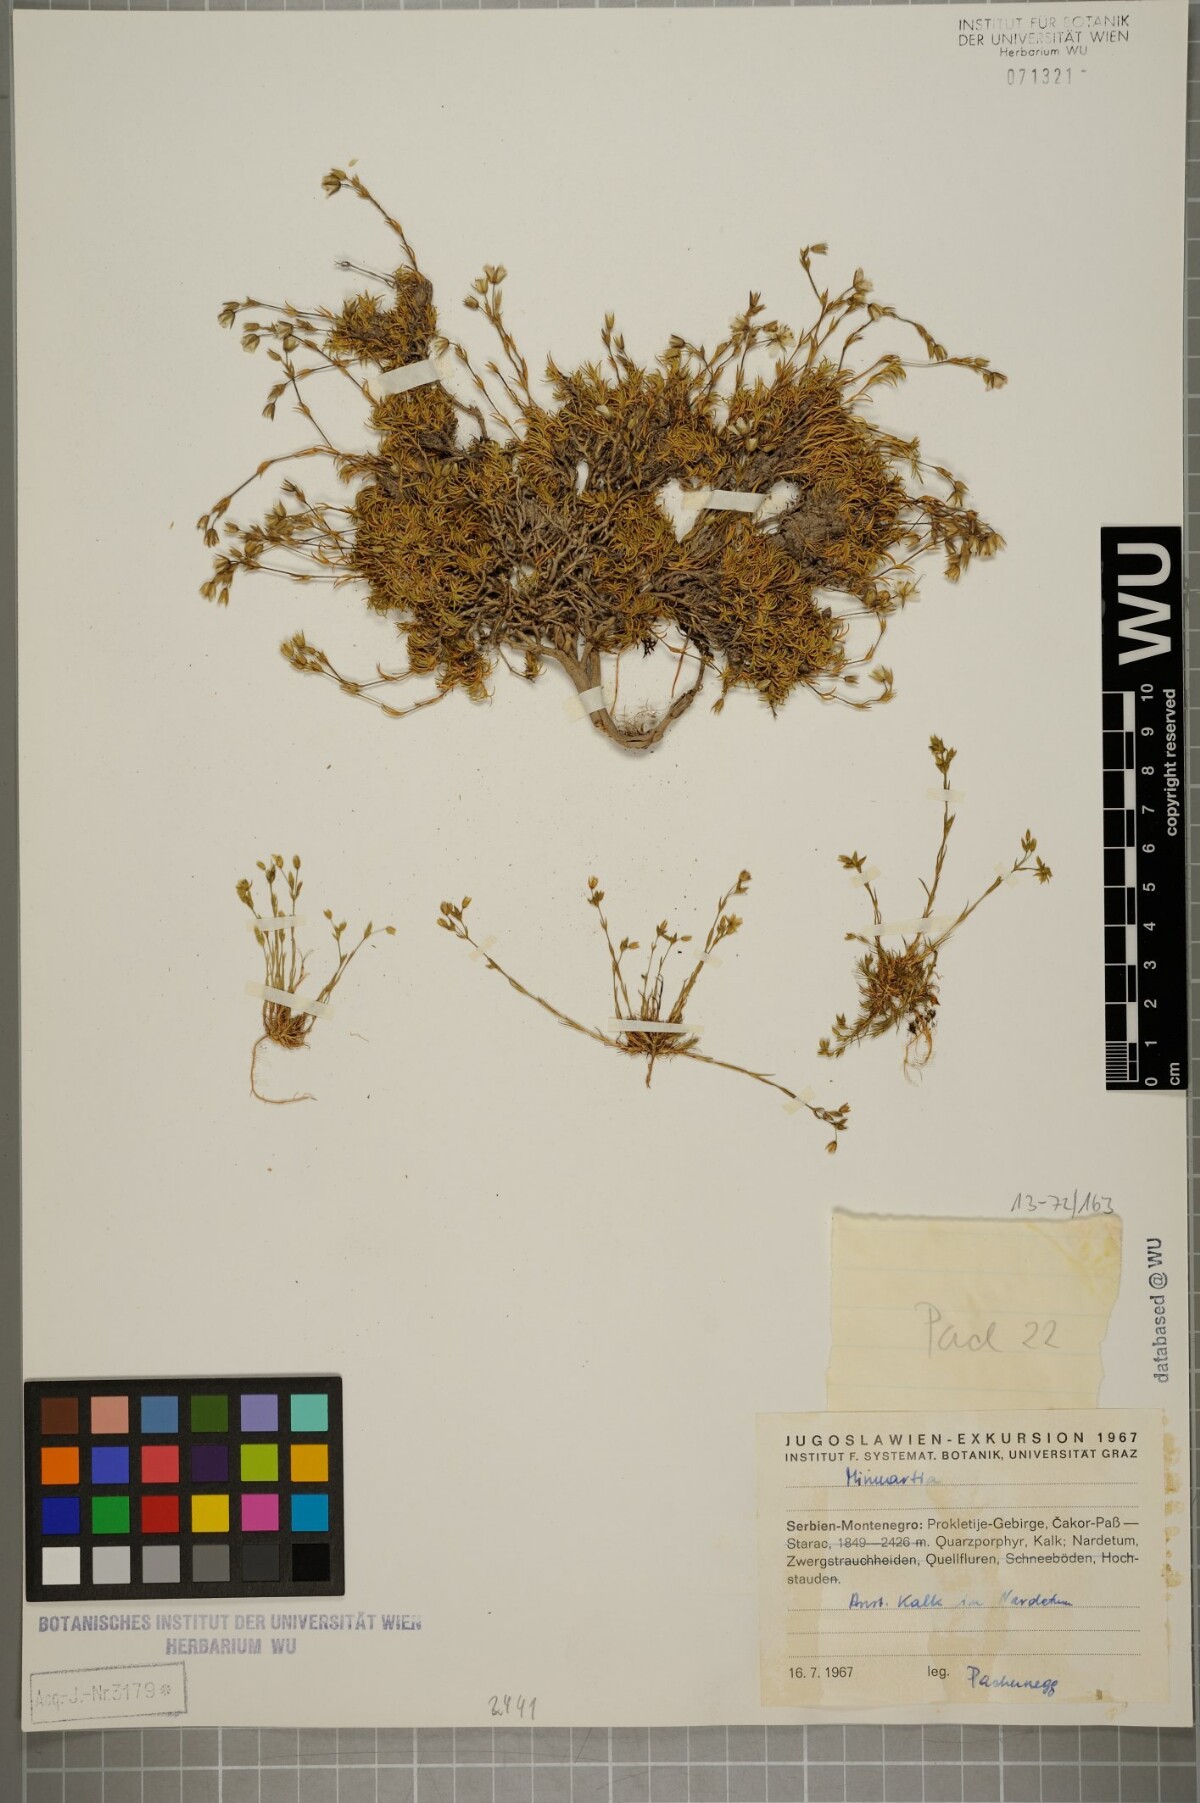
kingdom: Plantae
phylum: Tracheophyta
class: Magnoliopsida
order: Caryophyllales
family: Caryophyllaceae
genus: Minuartia
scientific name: Minuartia recurva
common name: Recurved sandwort
